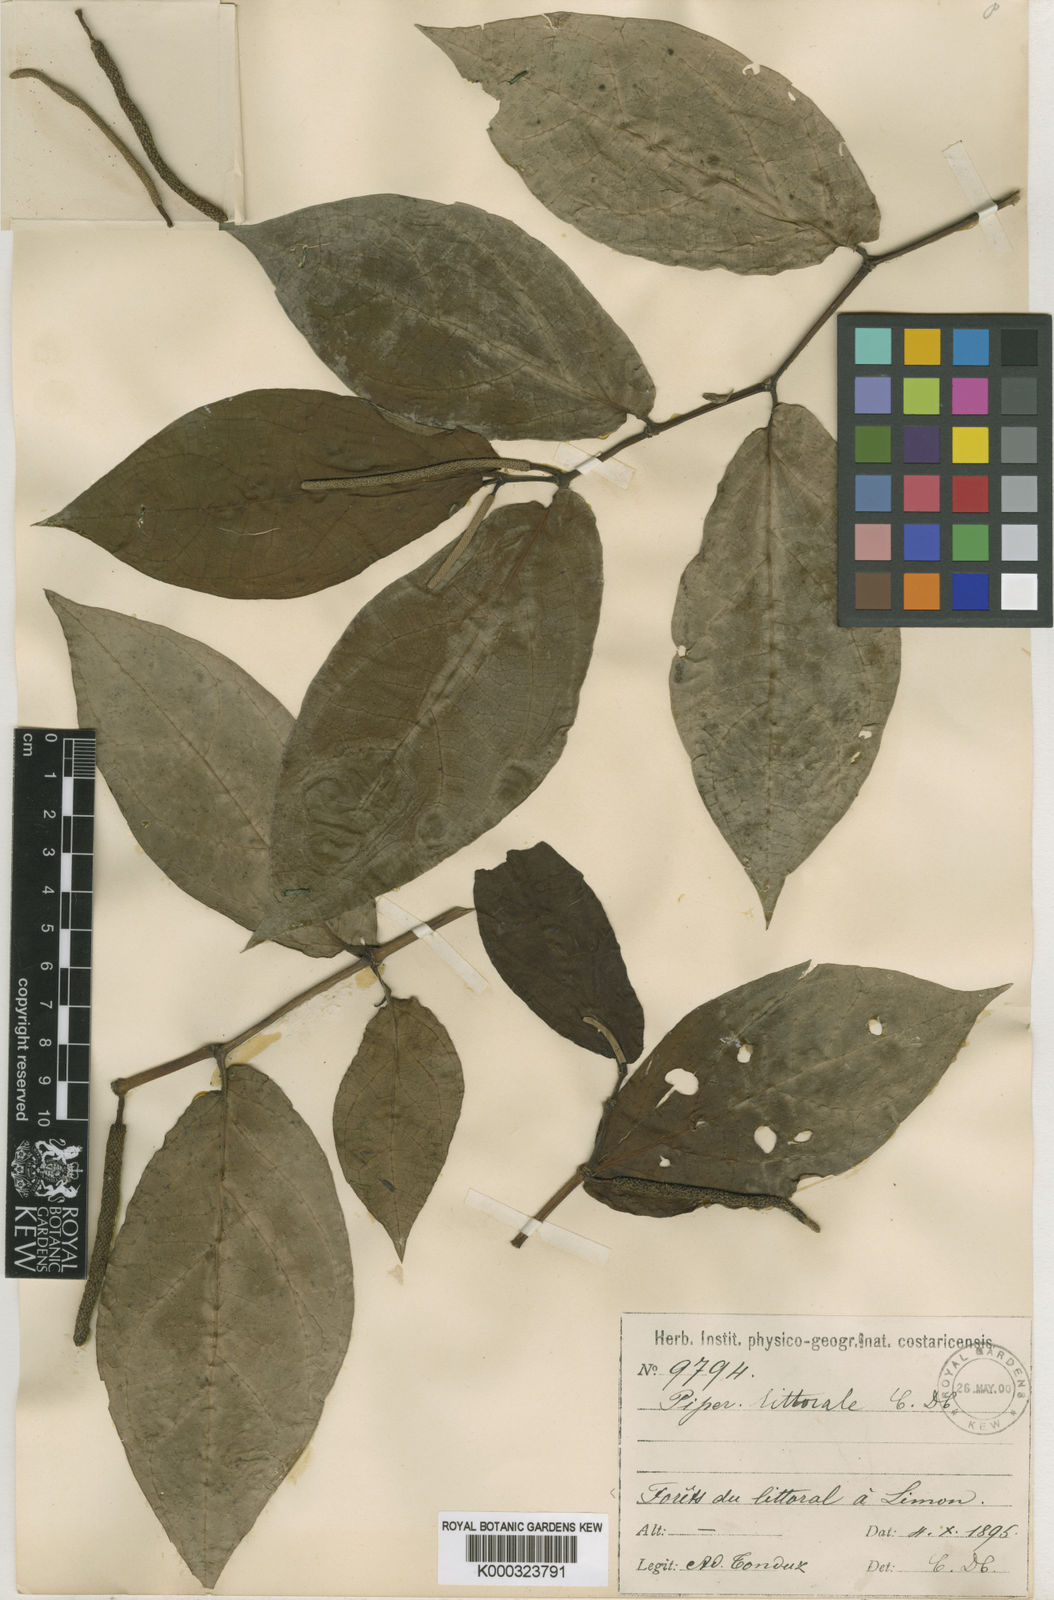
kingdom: Plantae
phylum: Tracheophyta
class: Magnoliopsida
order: Piperales
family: Piperaceae
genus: Piper
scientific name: Piper littorale
